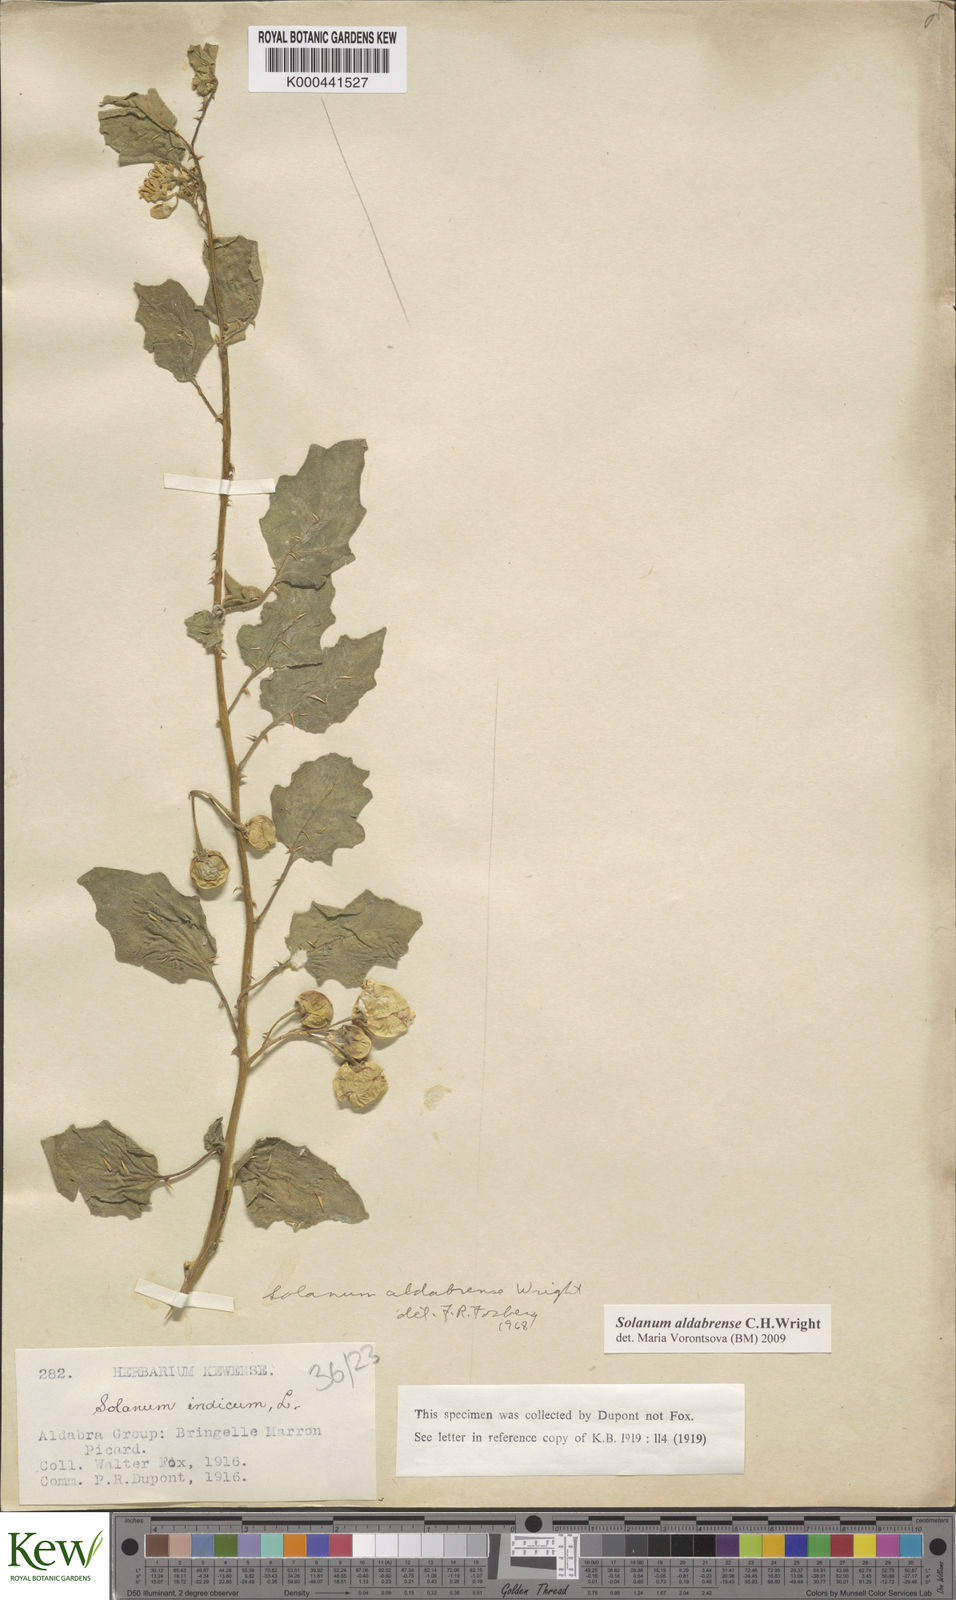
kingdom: Plantae
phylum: Tracheophyta
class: Magnoliopsida
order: Solanales
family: Solanaceae
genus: Solanum
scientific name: Solanum aldabrense
